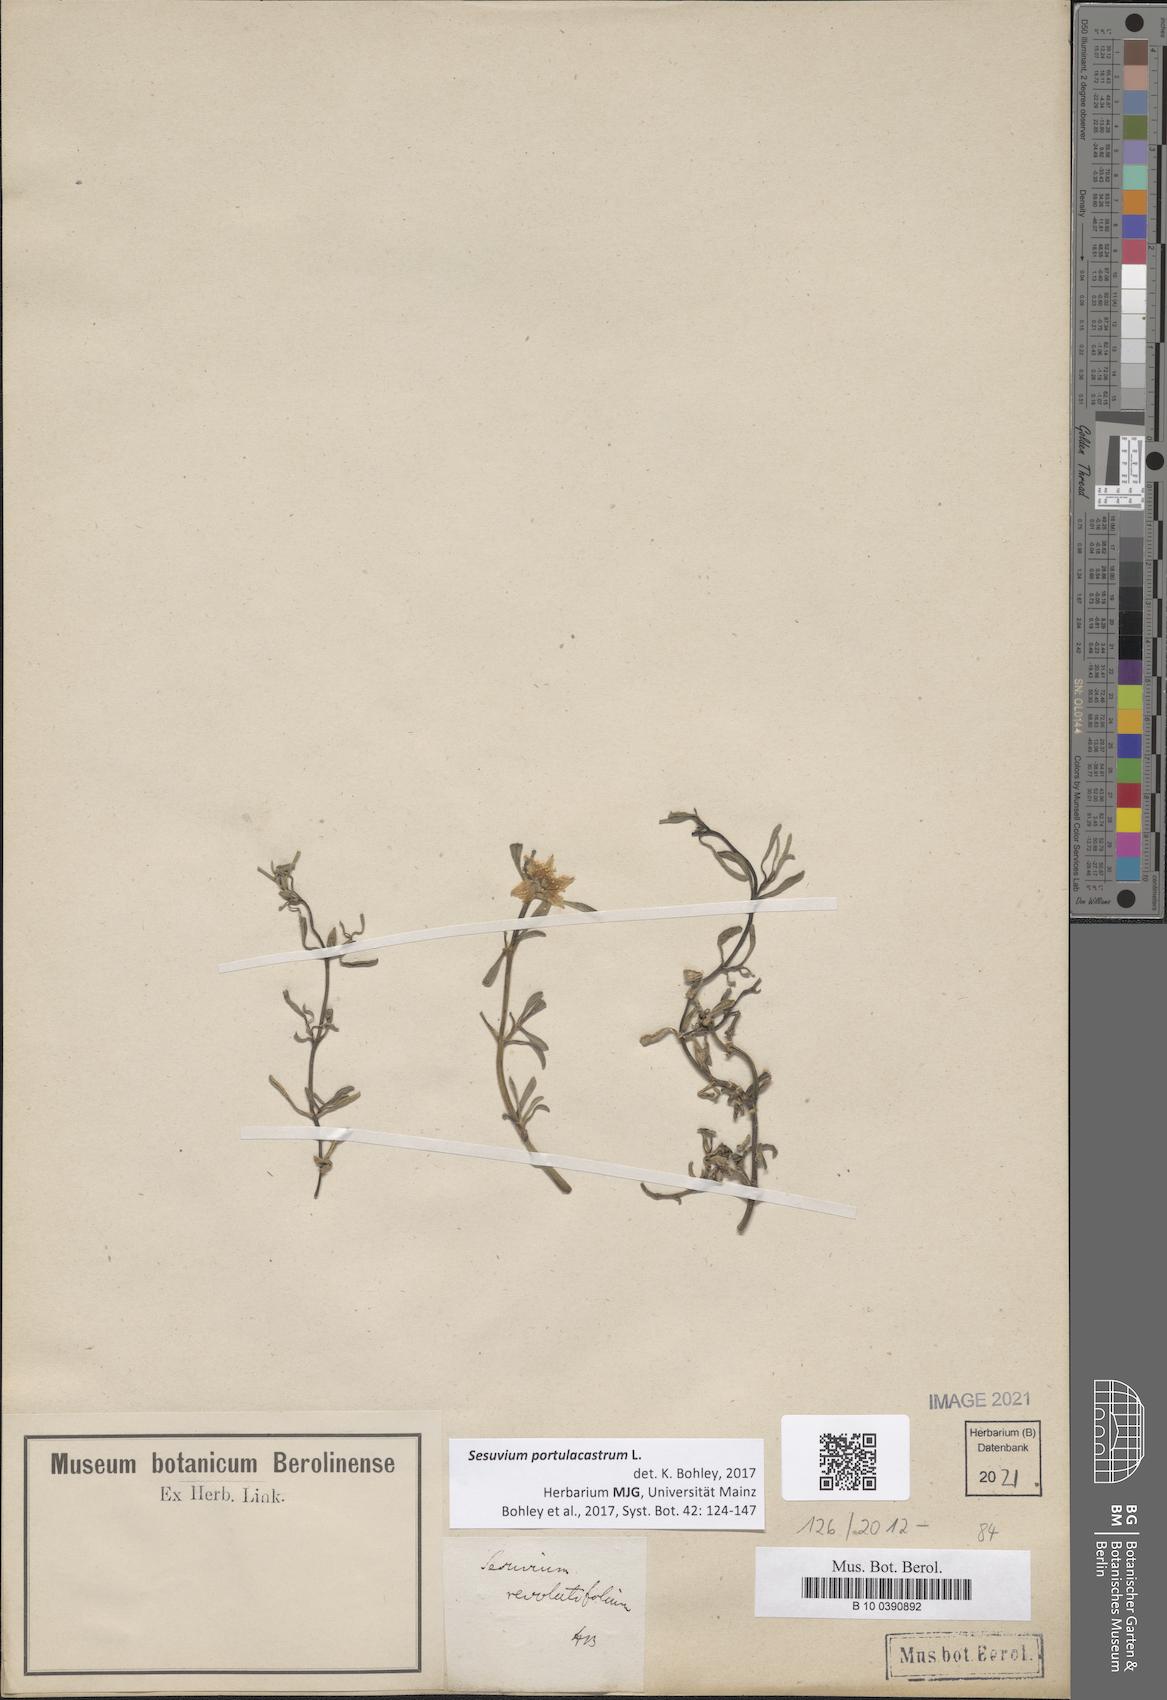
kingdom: Plantae
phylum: Tracheophyta
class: Magnoliopsida
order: Caryophyllales
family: Aizoaceae
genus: Sesuvium
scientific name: Sesuvium portulacastrum
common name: Sea-purslane
